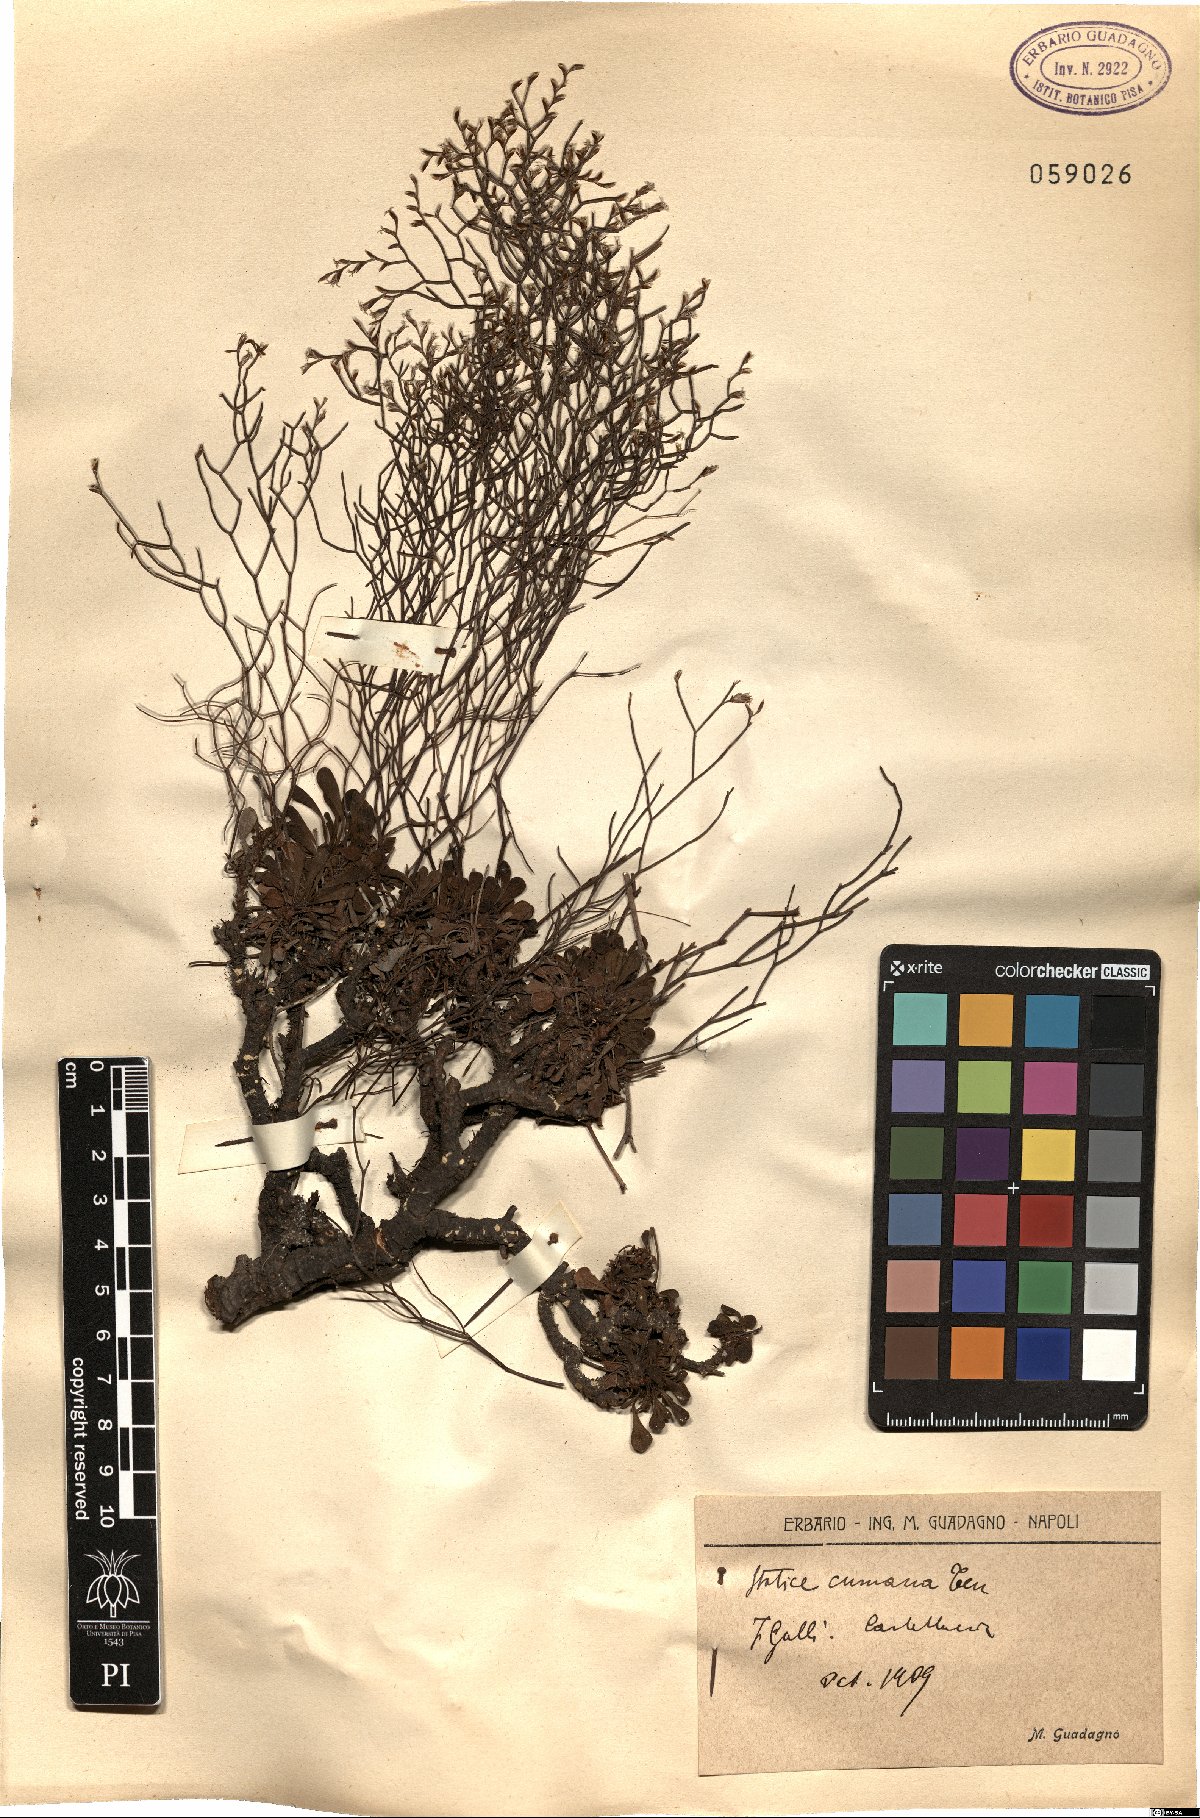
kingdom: Plantae
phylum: Tracheophyta
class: Magnoliopsida
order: Caryophyllales
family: Plumbaginaceae
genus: Limonium
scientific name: Limonium cumanum
